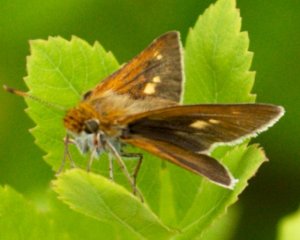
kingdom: Animalia
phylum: Arthropoda
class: Insecta
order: Lepidoptera
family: Hesperiidae
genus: Euphyes
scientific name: Euphyes bimacula
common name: Two-spotted Skipper
